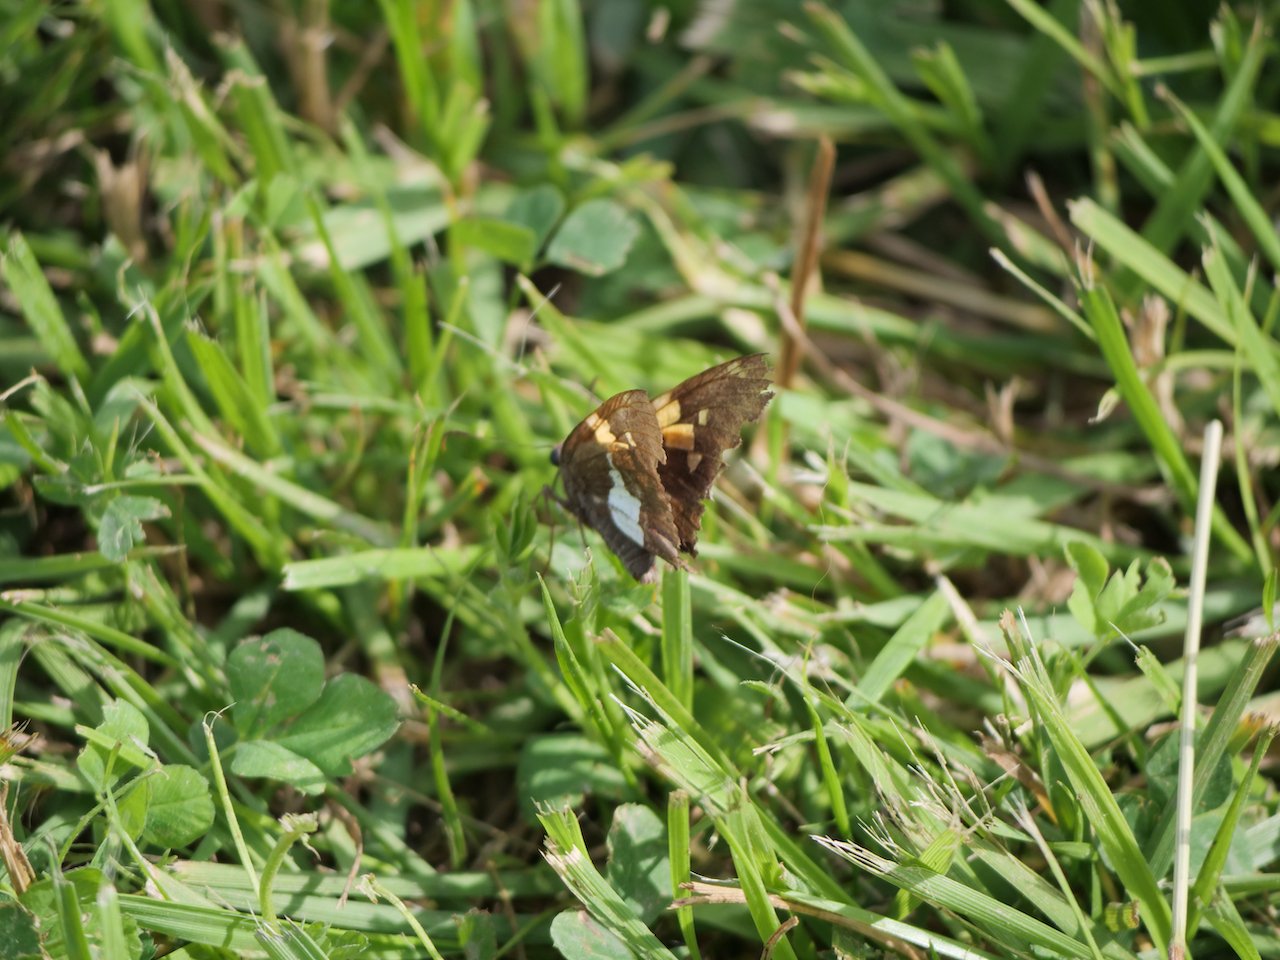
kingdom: Animalia
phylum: Arthropoda
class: Insecta
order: Lepidoptera
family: Hesperiidae
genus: Epargyreus
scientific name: Epargyreus clarus
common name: Silver-spotted Skipper
